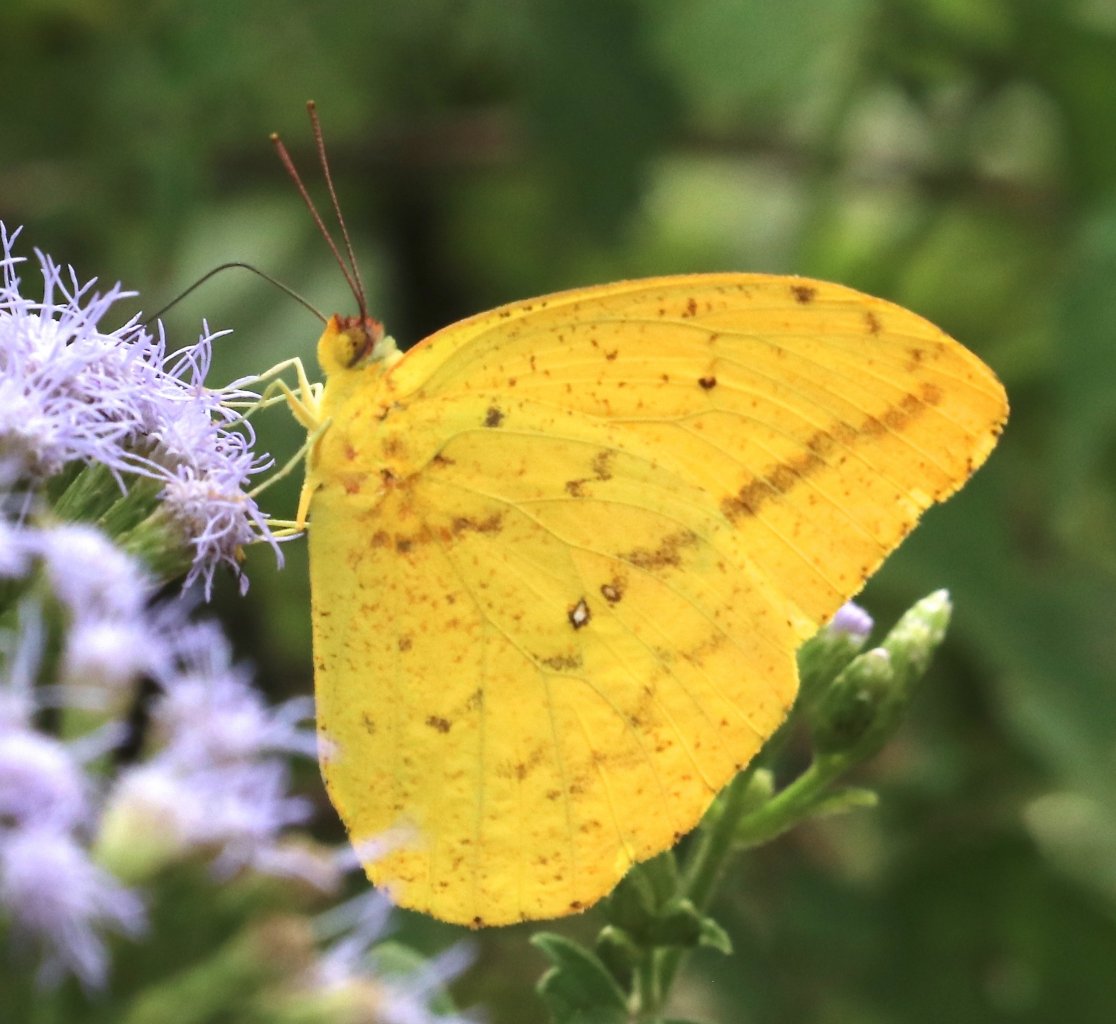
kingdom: Animalia
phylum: Arthropoda
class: Insecta
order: Lepidoptera
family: Pieridae
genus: Phoebis
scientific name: Phoebis agarithe
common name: Large Orange Sulphur
